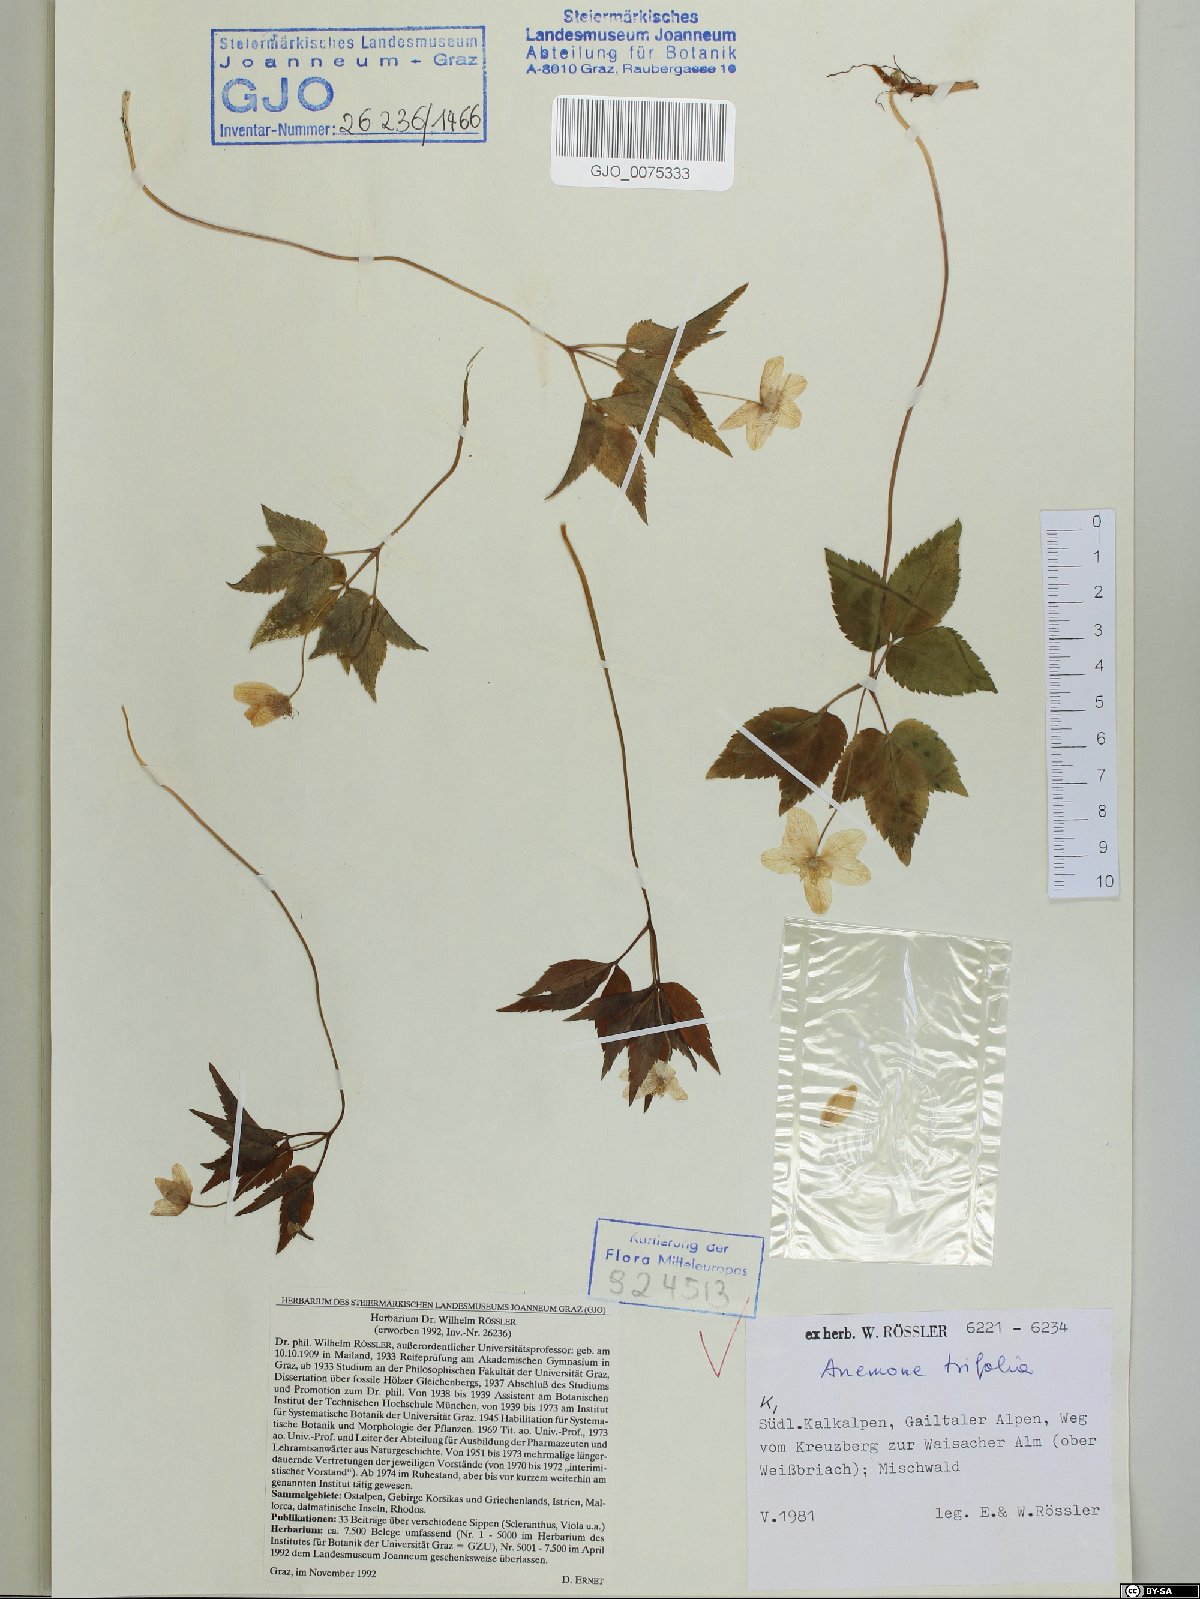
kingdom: Plantae
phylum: Tracheophyta
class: Magnoliopsida
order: Ranunculales
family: Ranunculaceae
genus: Anemone
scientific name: Anemone trifolia
